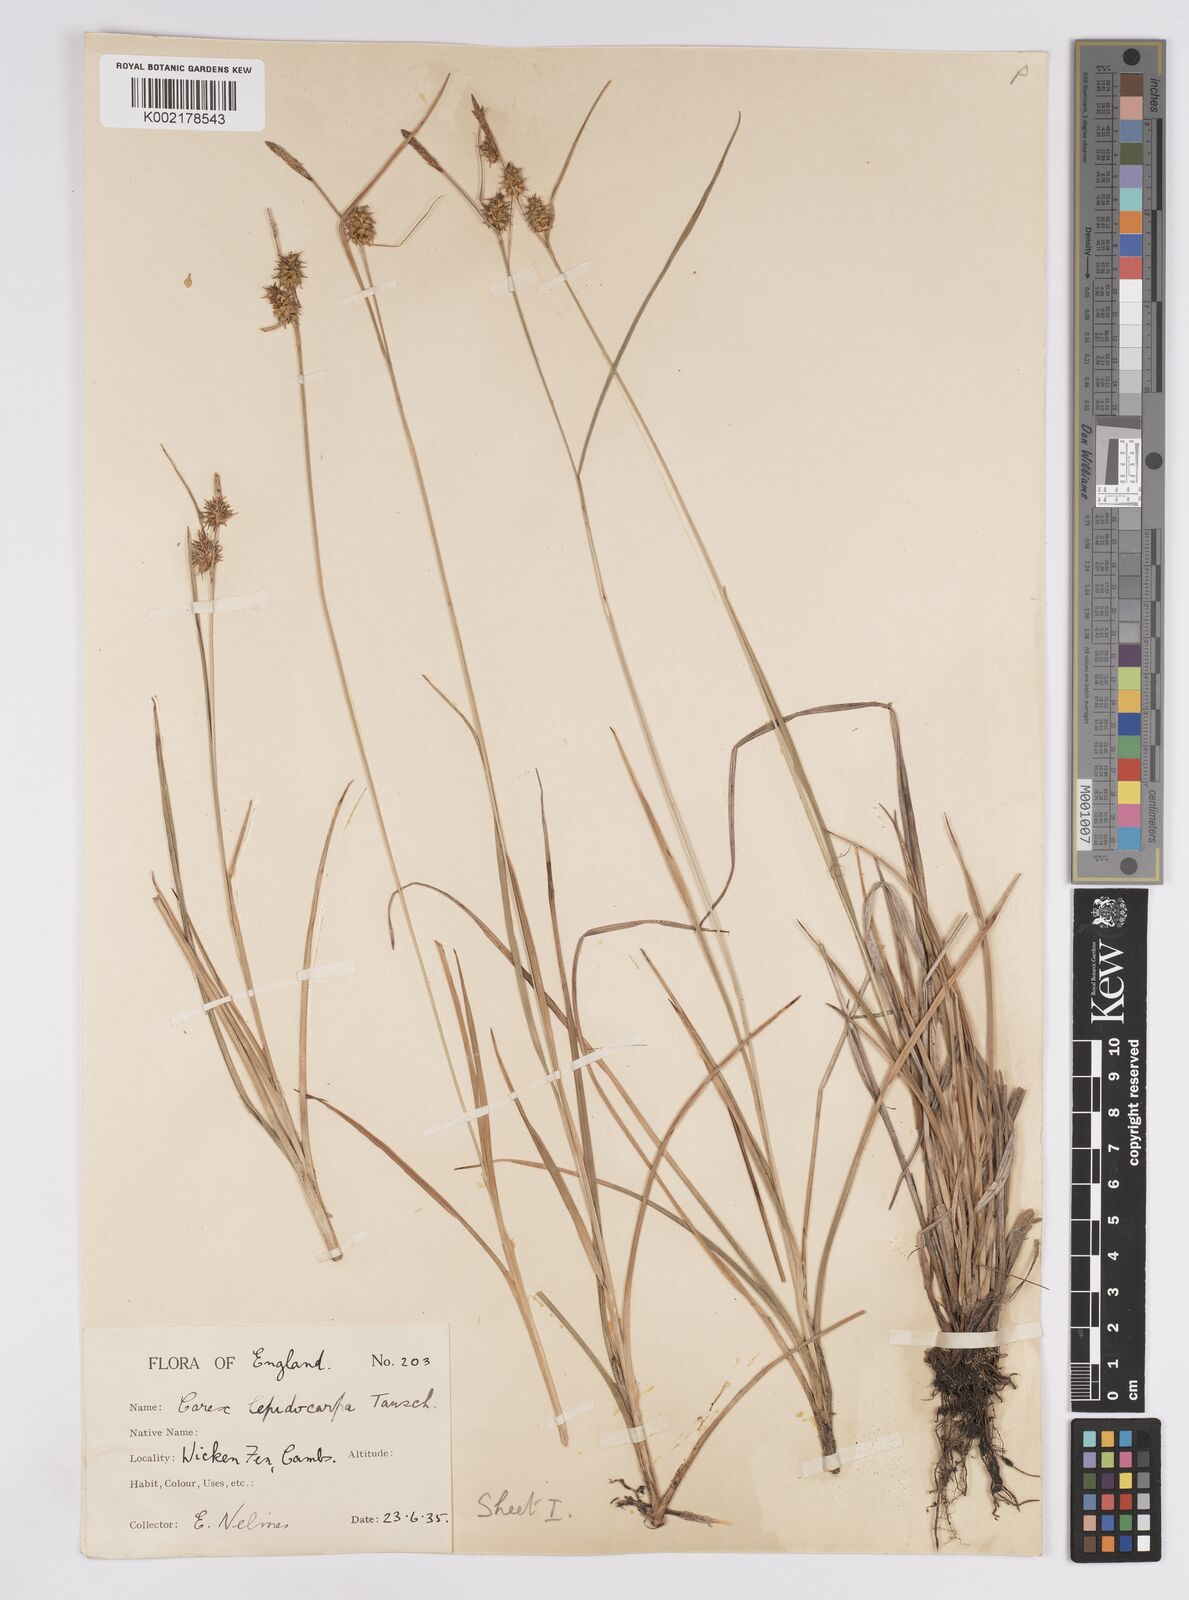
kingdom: Plantae
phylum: Tracheophyta
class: Liliopsida
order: Poales
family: Cyperaceae
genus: Carex
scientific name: Carex lepidocarpa
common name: Long-stalked yellow-sedge
